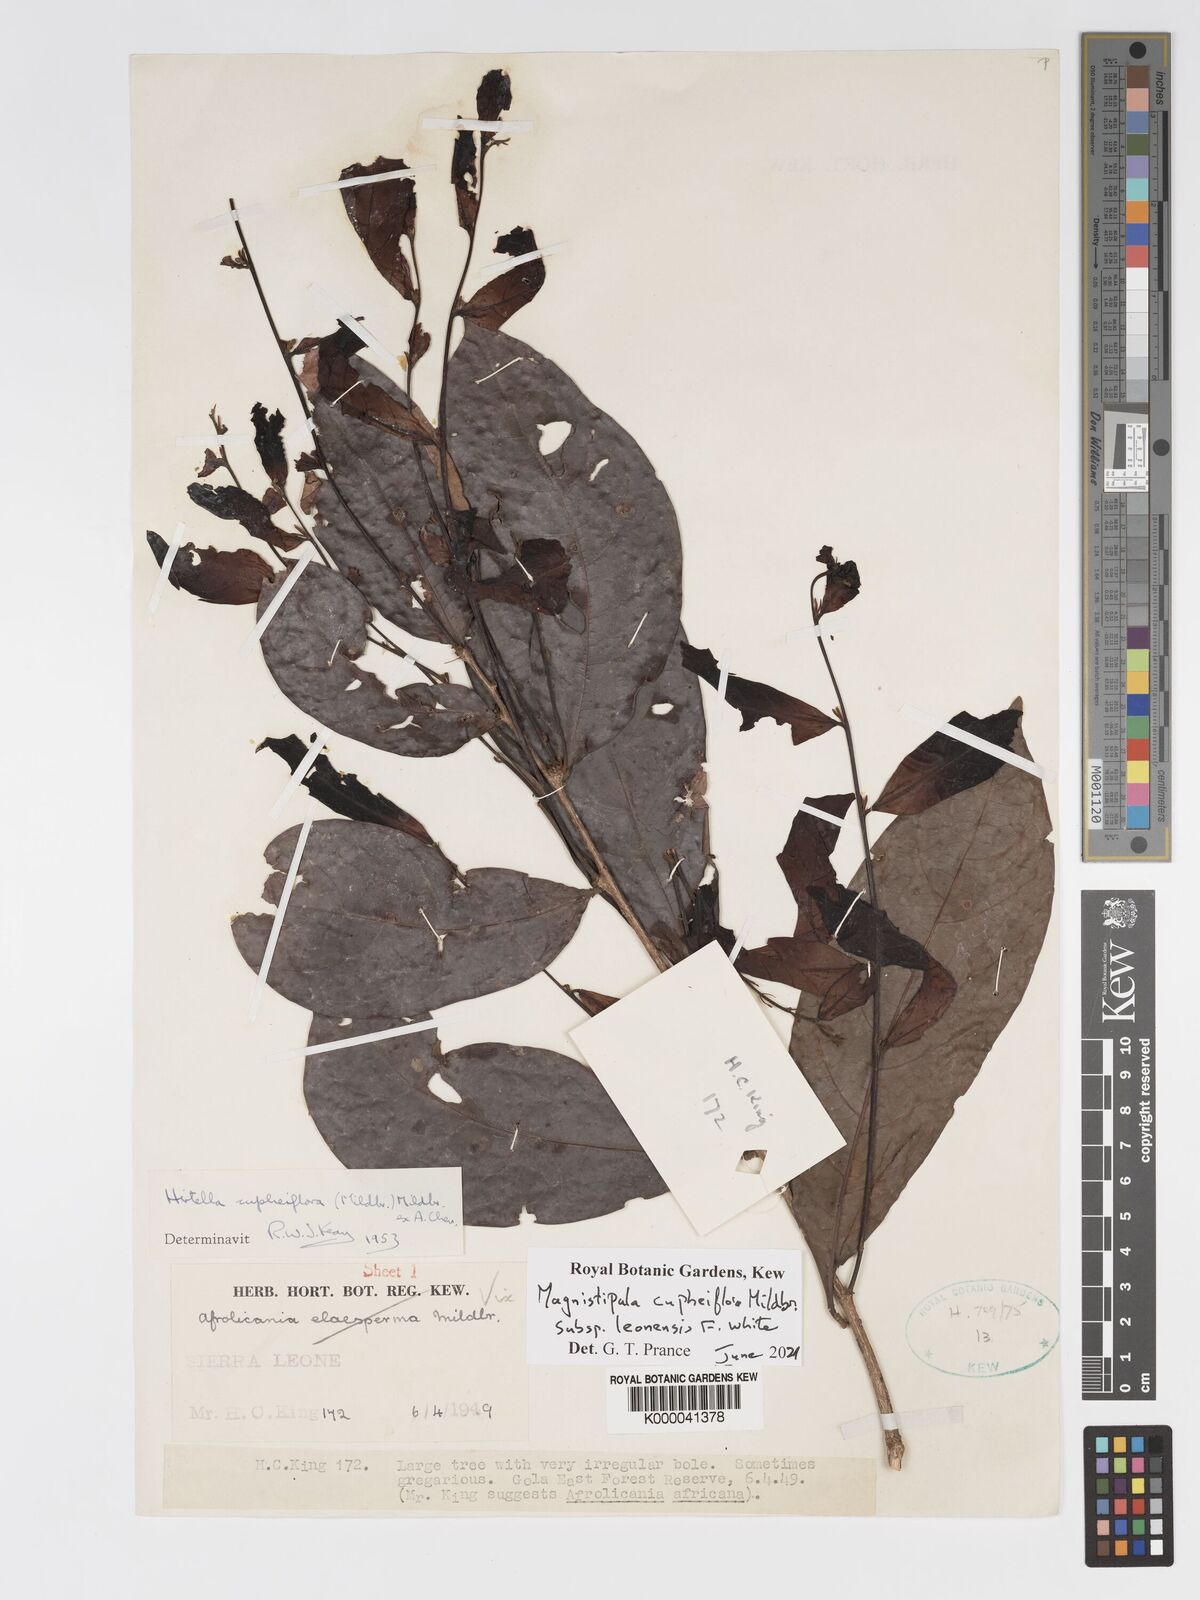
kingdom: Plantae
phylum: Tracheophyta
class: Magnoliopsida
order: Malpighiales
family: Chrysobalanaceae
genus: Magnistipula
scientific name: Magnistipula cupheiflora
